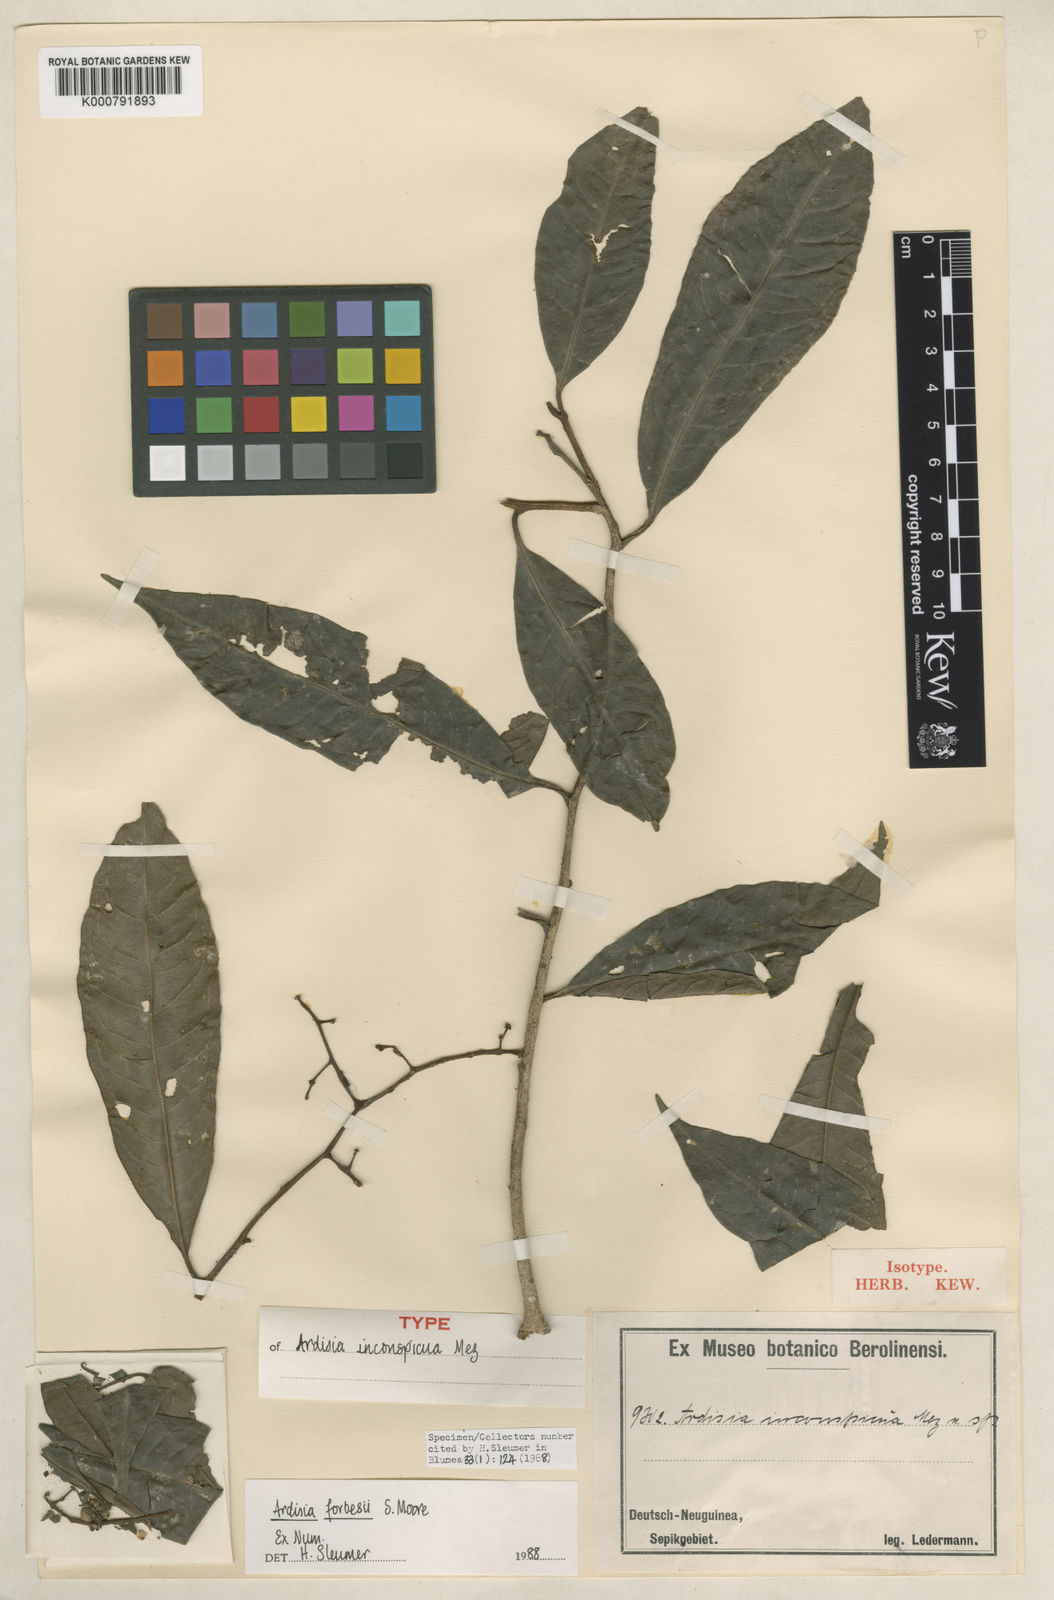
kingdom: Plantae
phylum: Tracheophyta
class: Magnoliopsida
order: Ericales
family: Primulaceae
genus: Ardisia
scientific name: Ardisia forbesii
